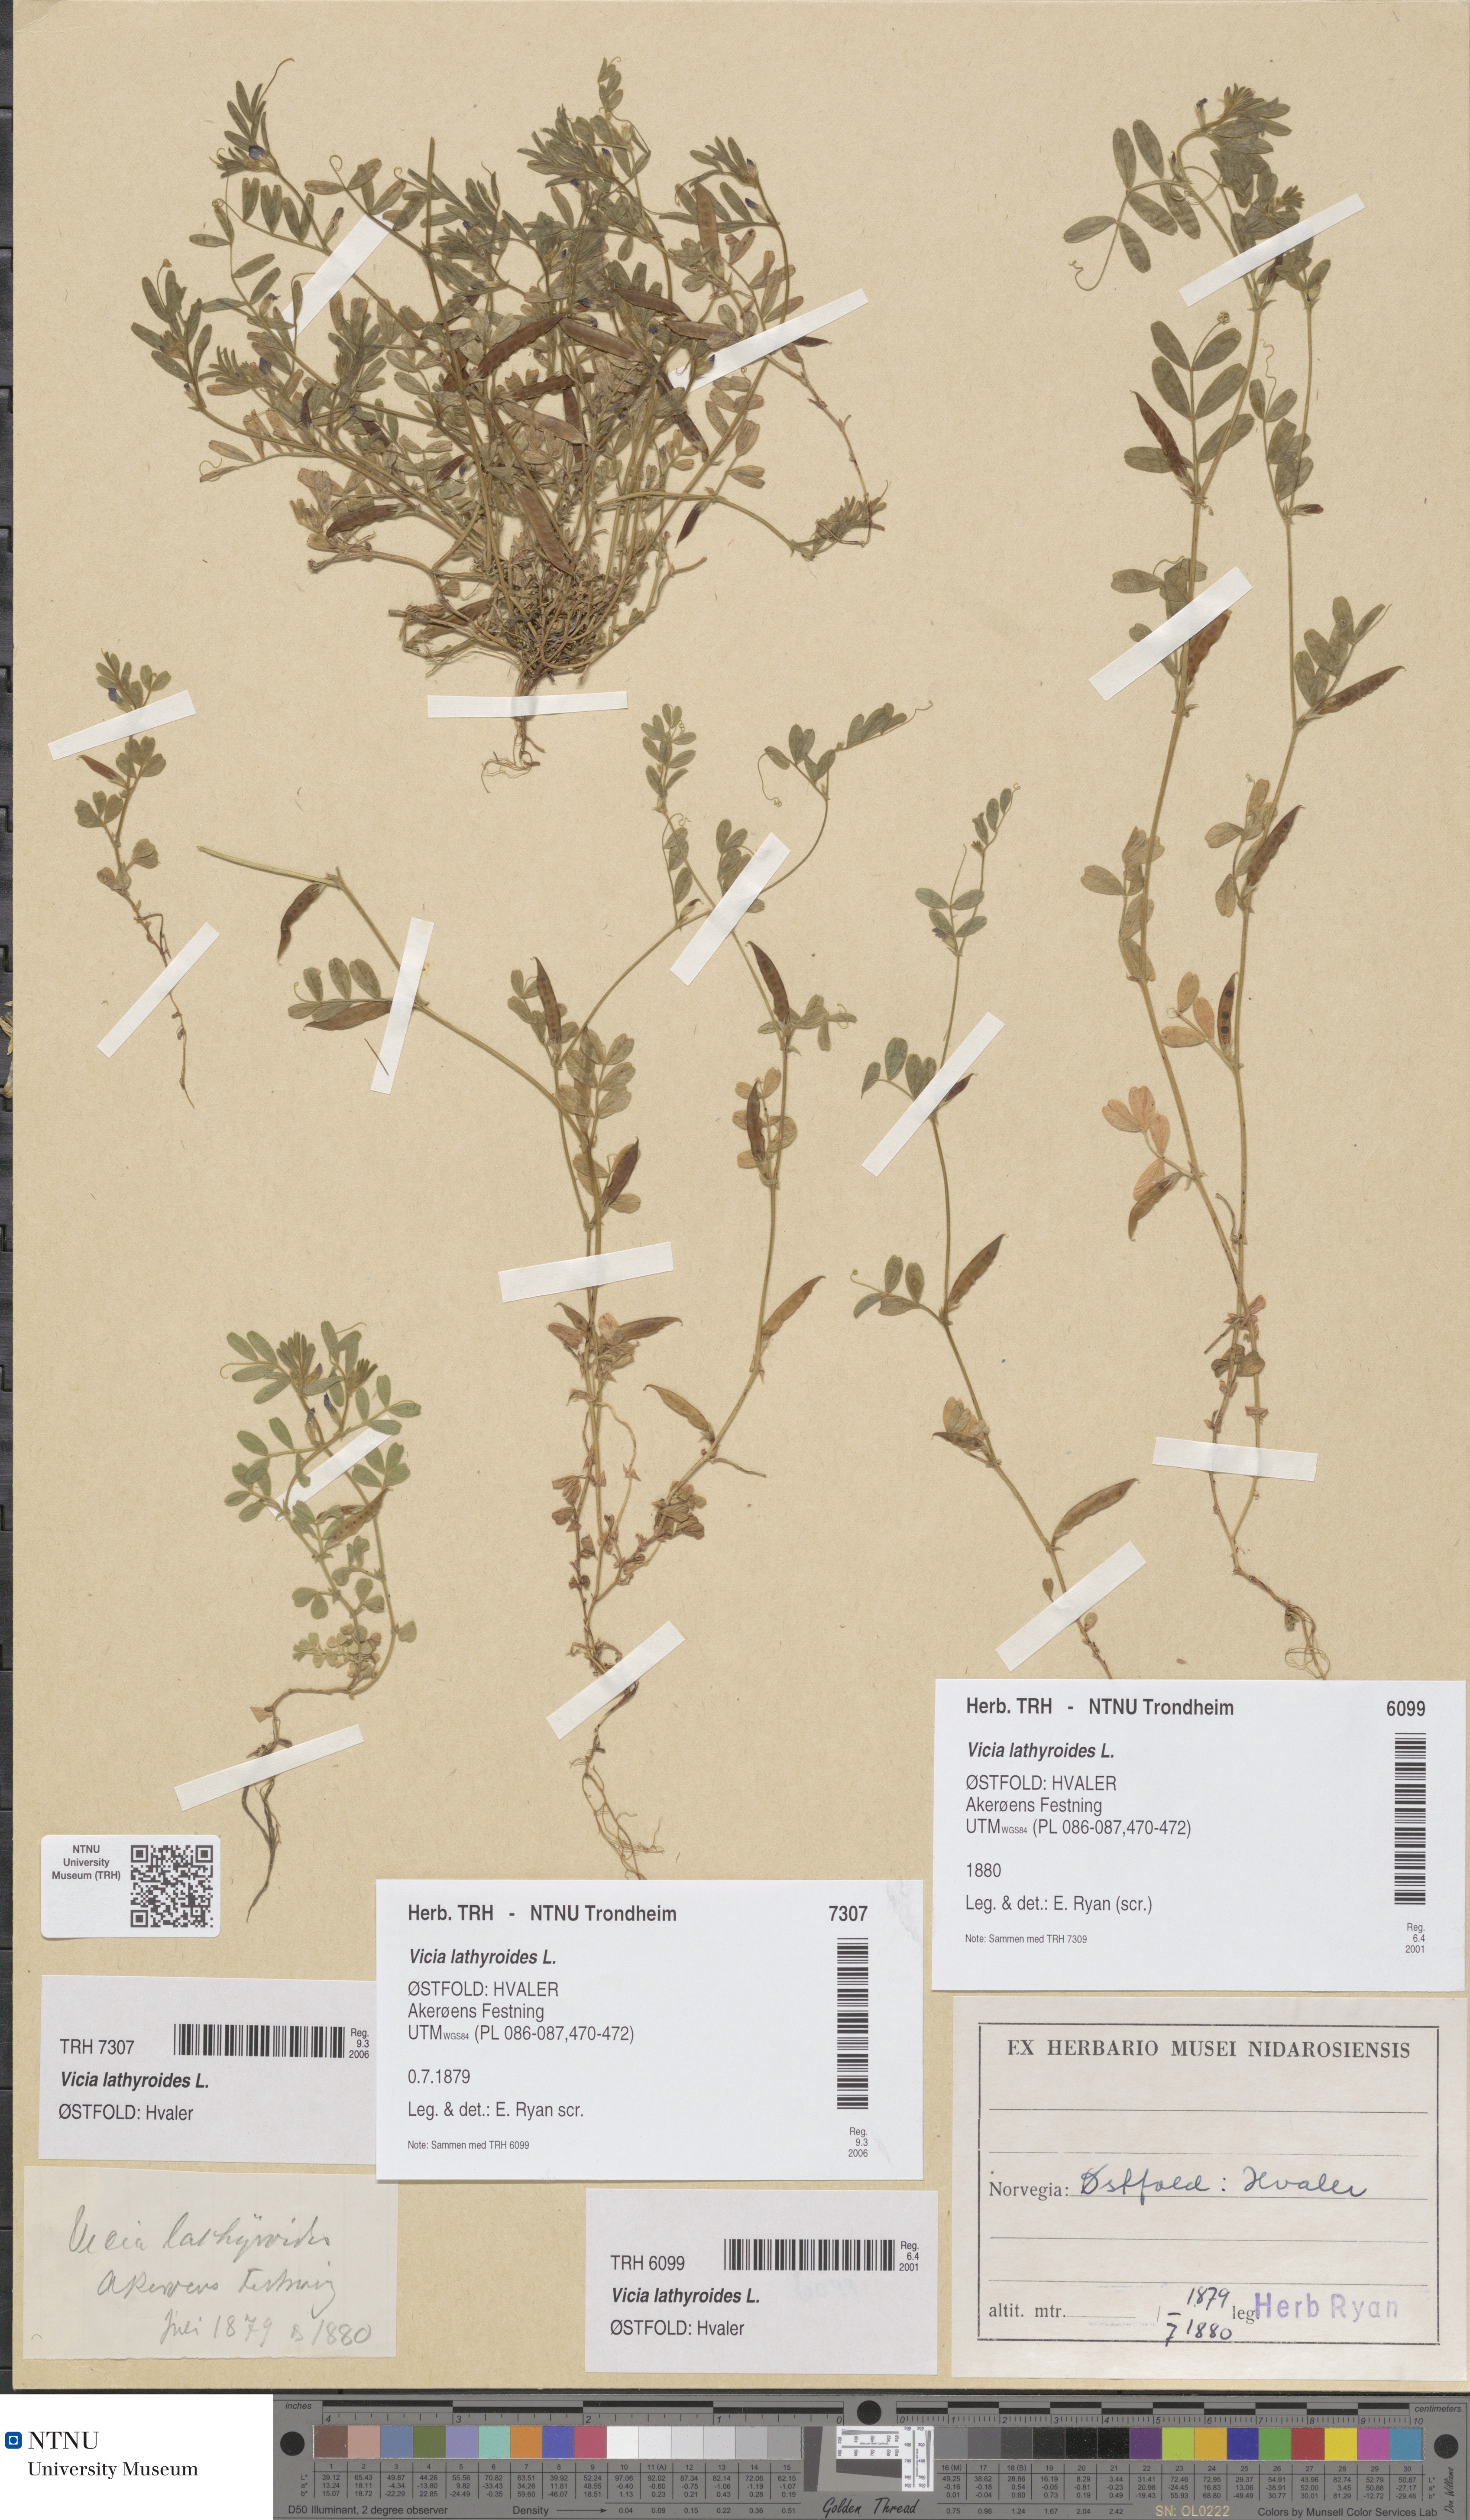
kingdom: Plantae
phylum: Tracheophyta
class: Magnoliopsida
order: Fabales
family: Fabaceae
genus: Vicia
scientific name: Vicia lathyroides
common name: Spring vetch
